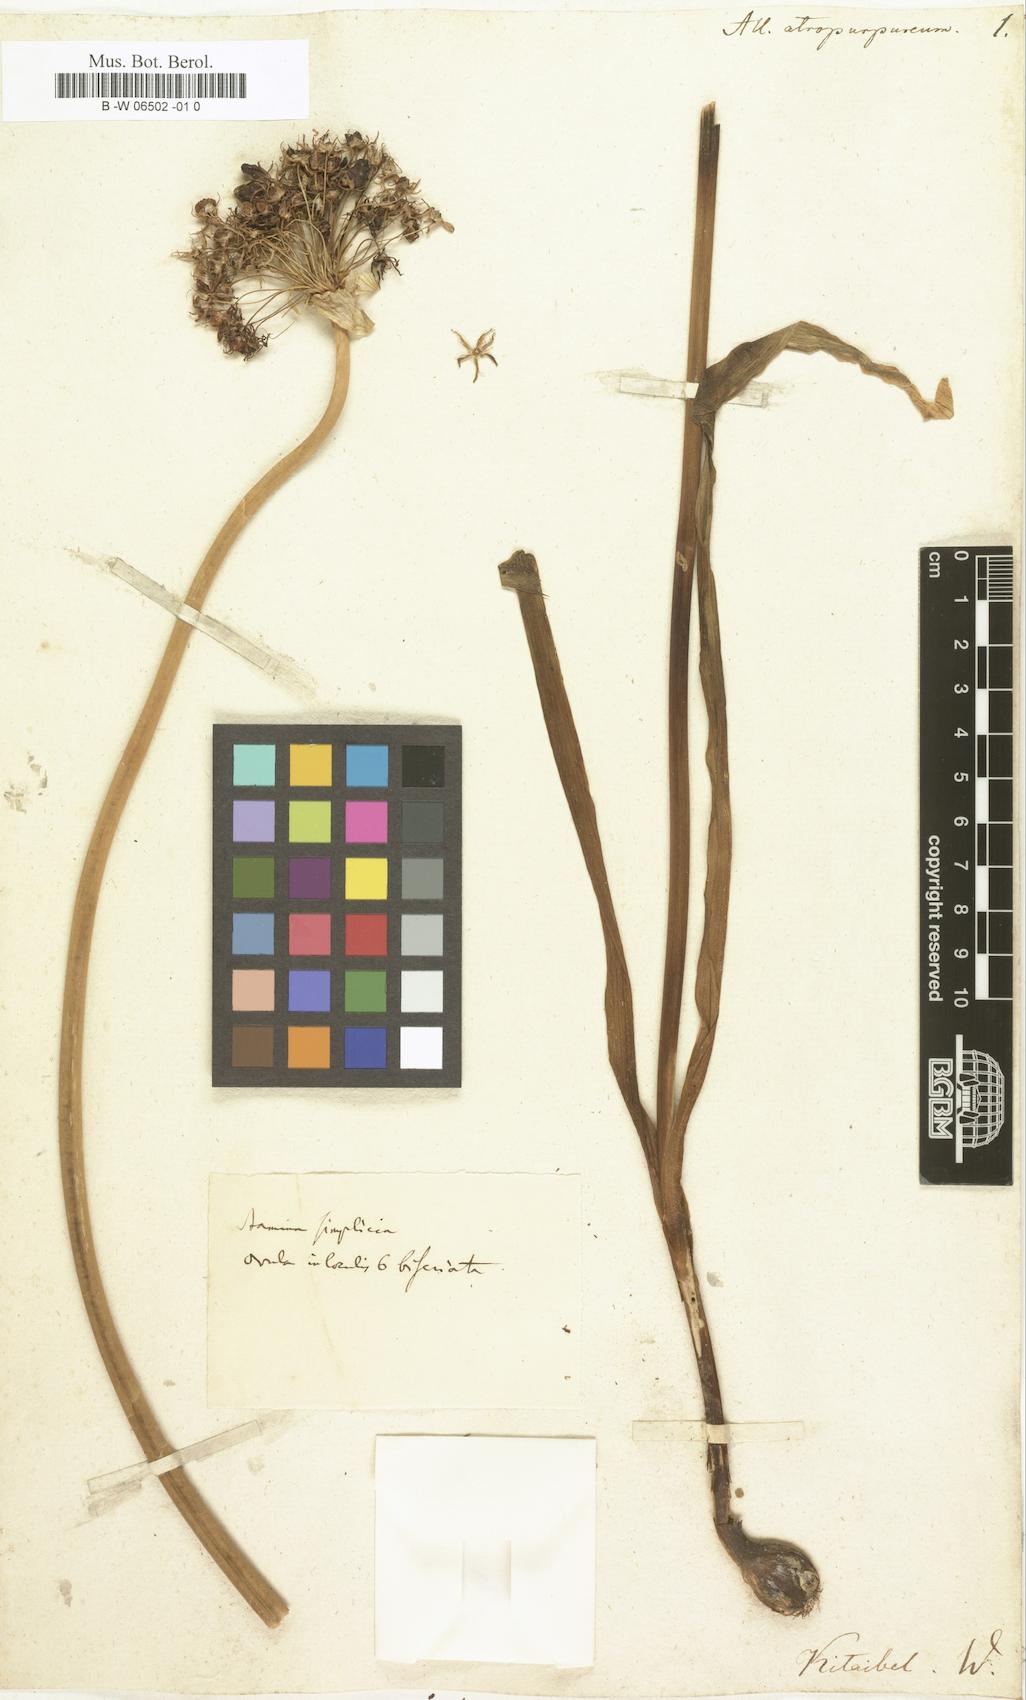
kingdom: Plantae
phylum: Tracheophyta
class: Liliopsida
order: Asparagales
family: Amaryllidaceae
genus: Allium
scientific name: Allium atropurpureum
